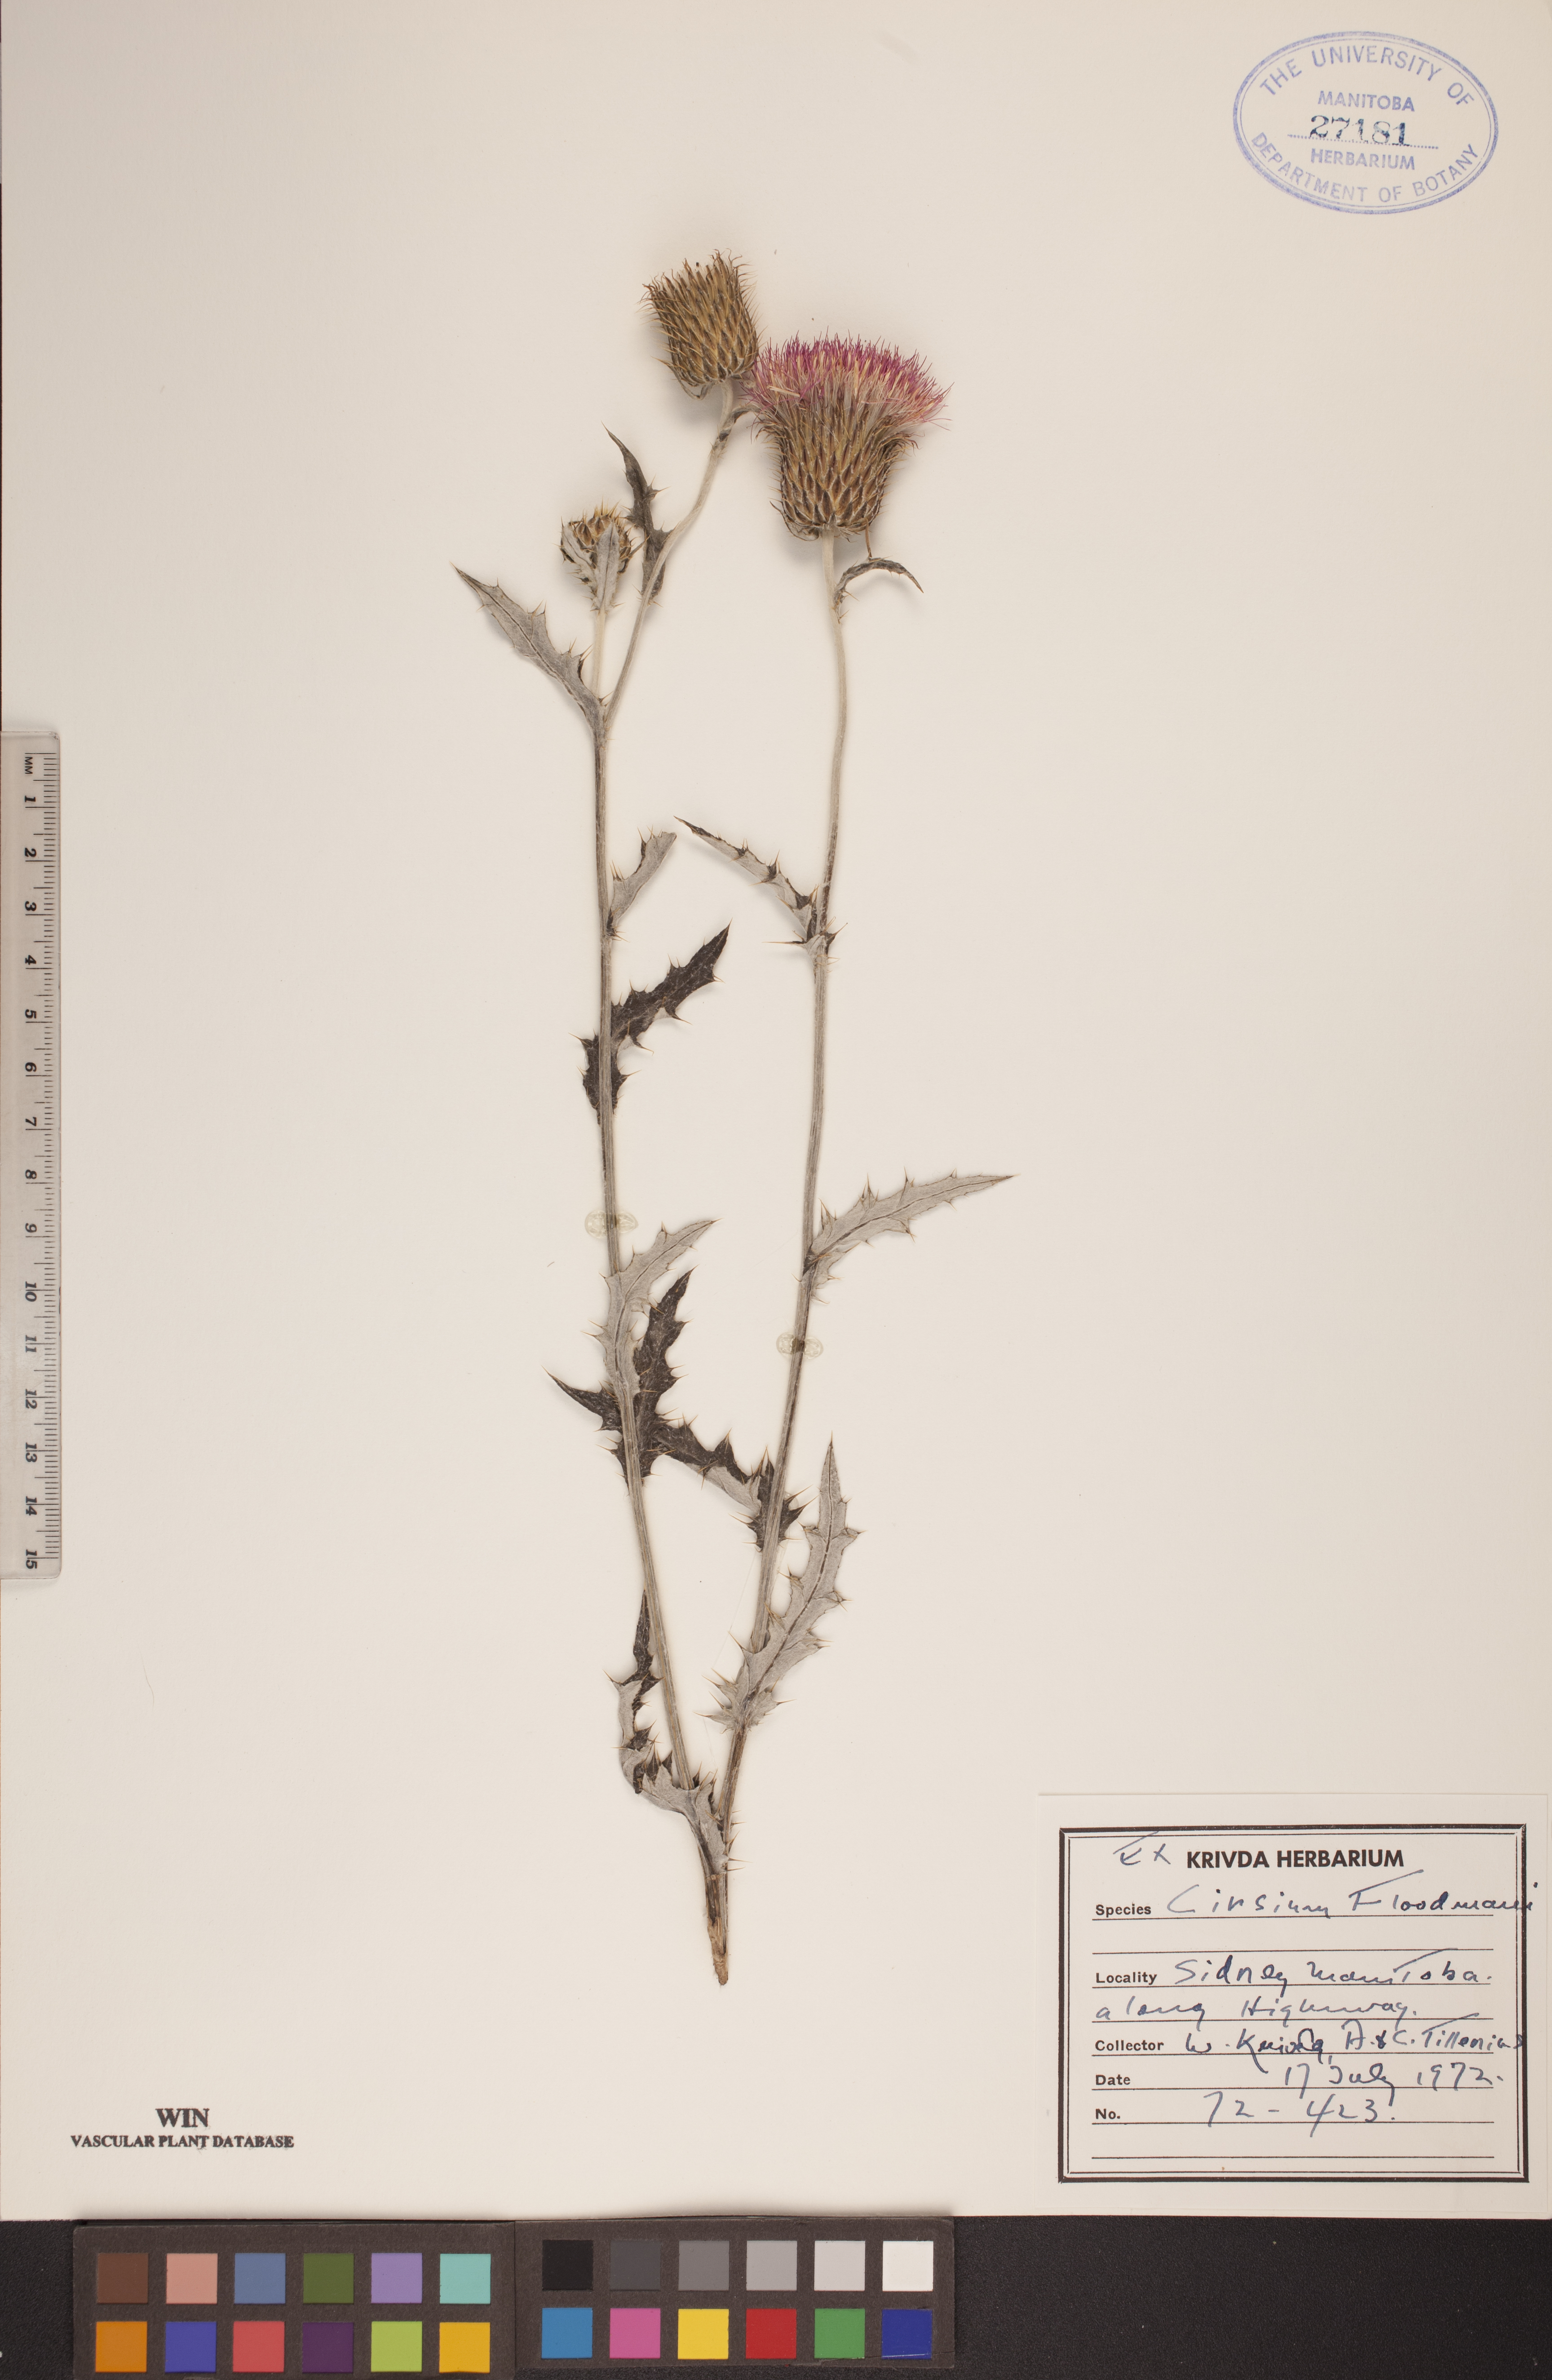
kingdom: Plantae
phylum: Tracheophyta
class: Magnoliopsida
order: Asterales
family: Asteraceae
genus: Cirsium
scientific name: Cirsium flodmanii
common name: Flodman's thistle
